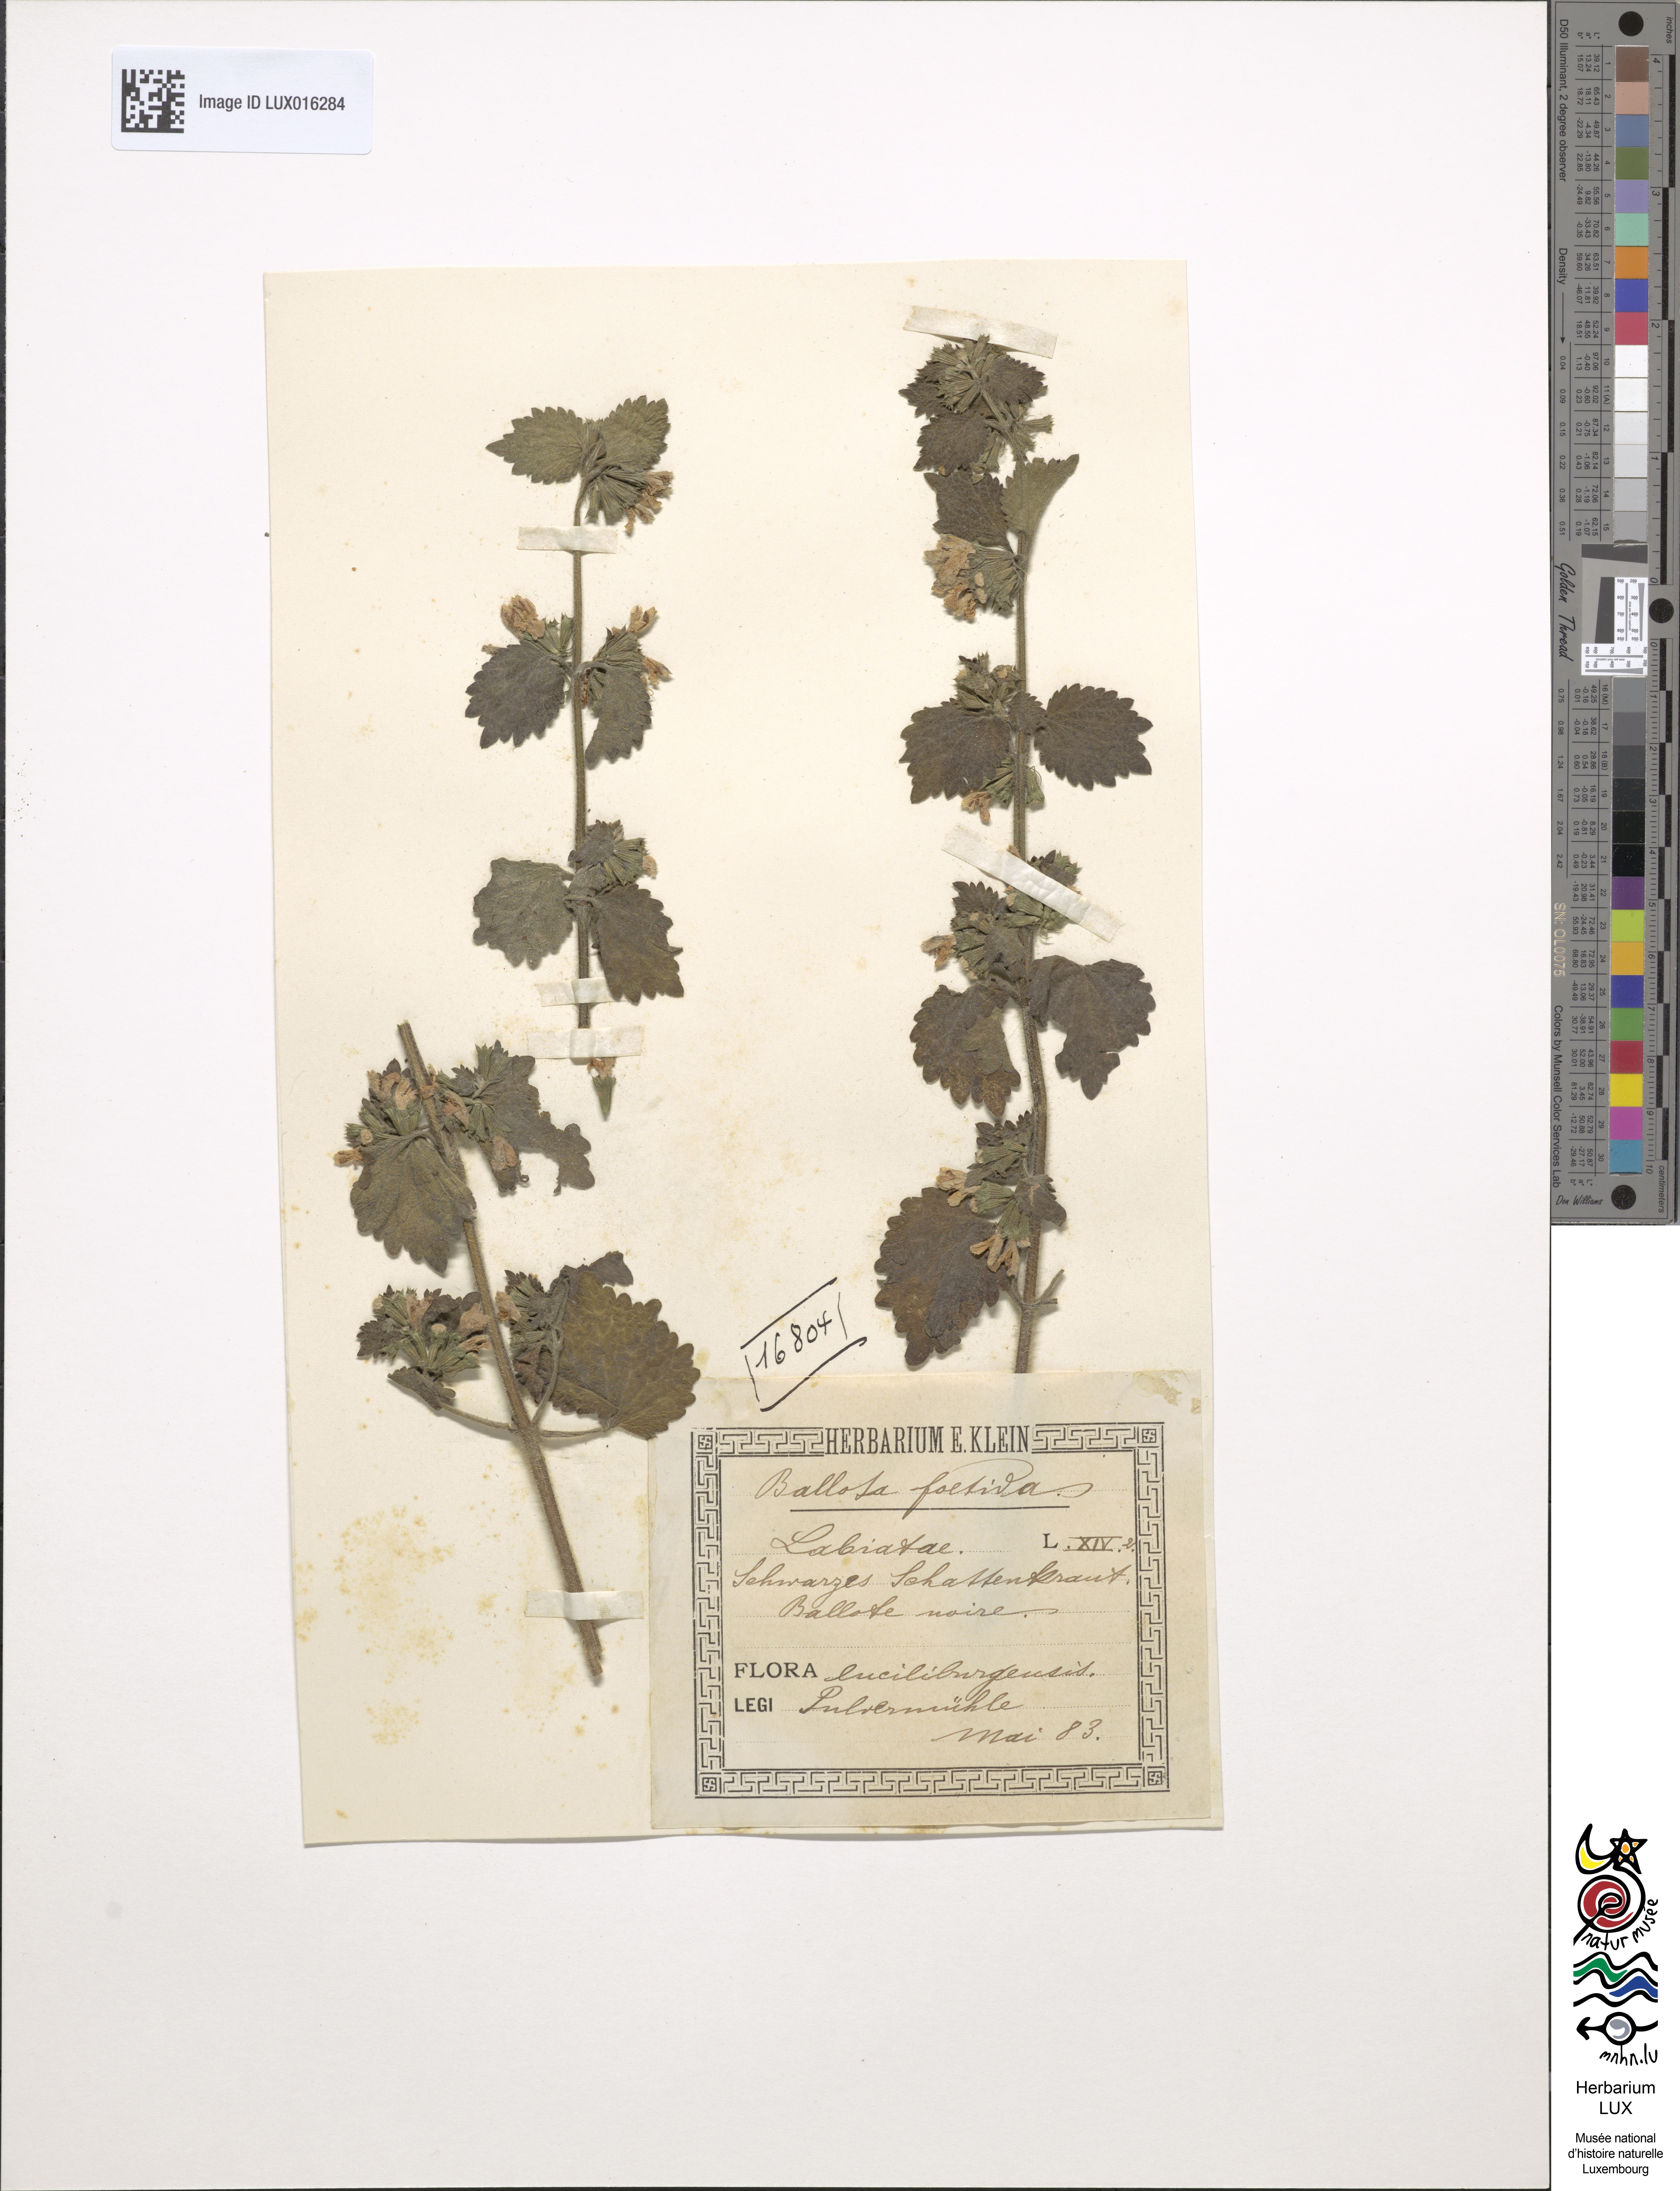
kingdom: Plantae
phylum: Tracheophyta
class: Magnoliopsida
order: Lamiales
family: Lamiaceae
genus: Ballota
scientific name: Ballota nigra
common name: Black horehound
